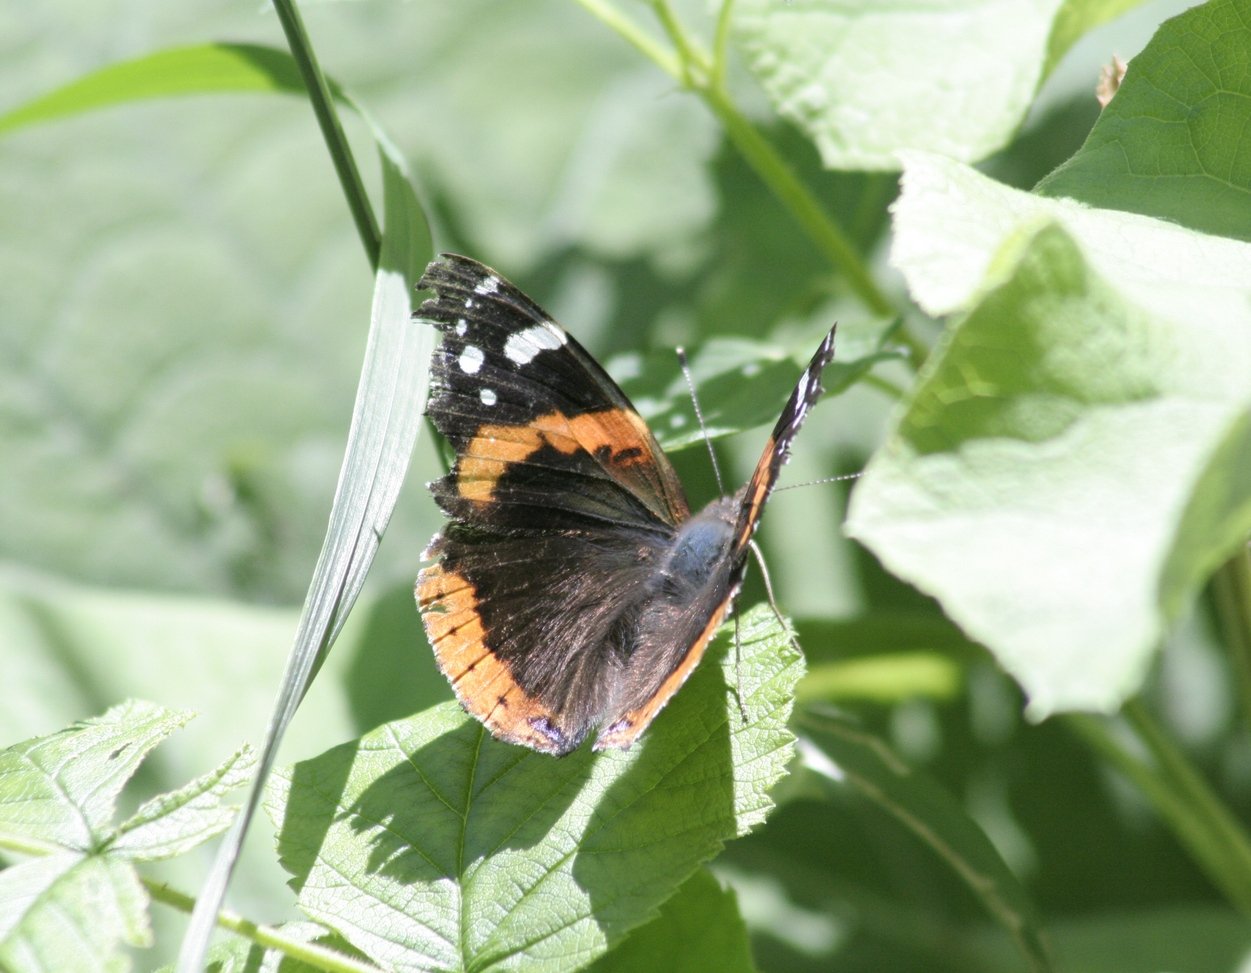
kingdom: Animalia
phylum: Arthropoda
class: Insecta
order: Lepidoptera
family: Nymphalidae
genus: Vanessa
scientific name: Vanessa atalanta
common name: Red Admiral
